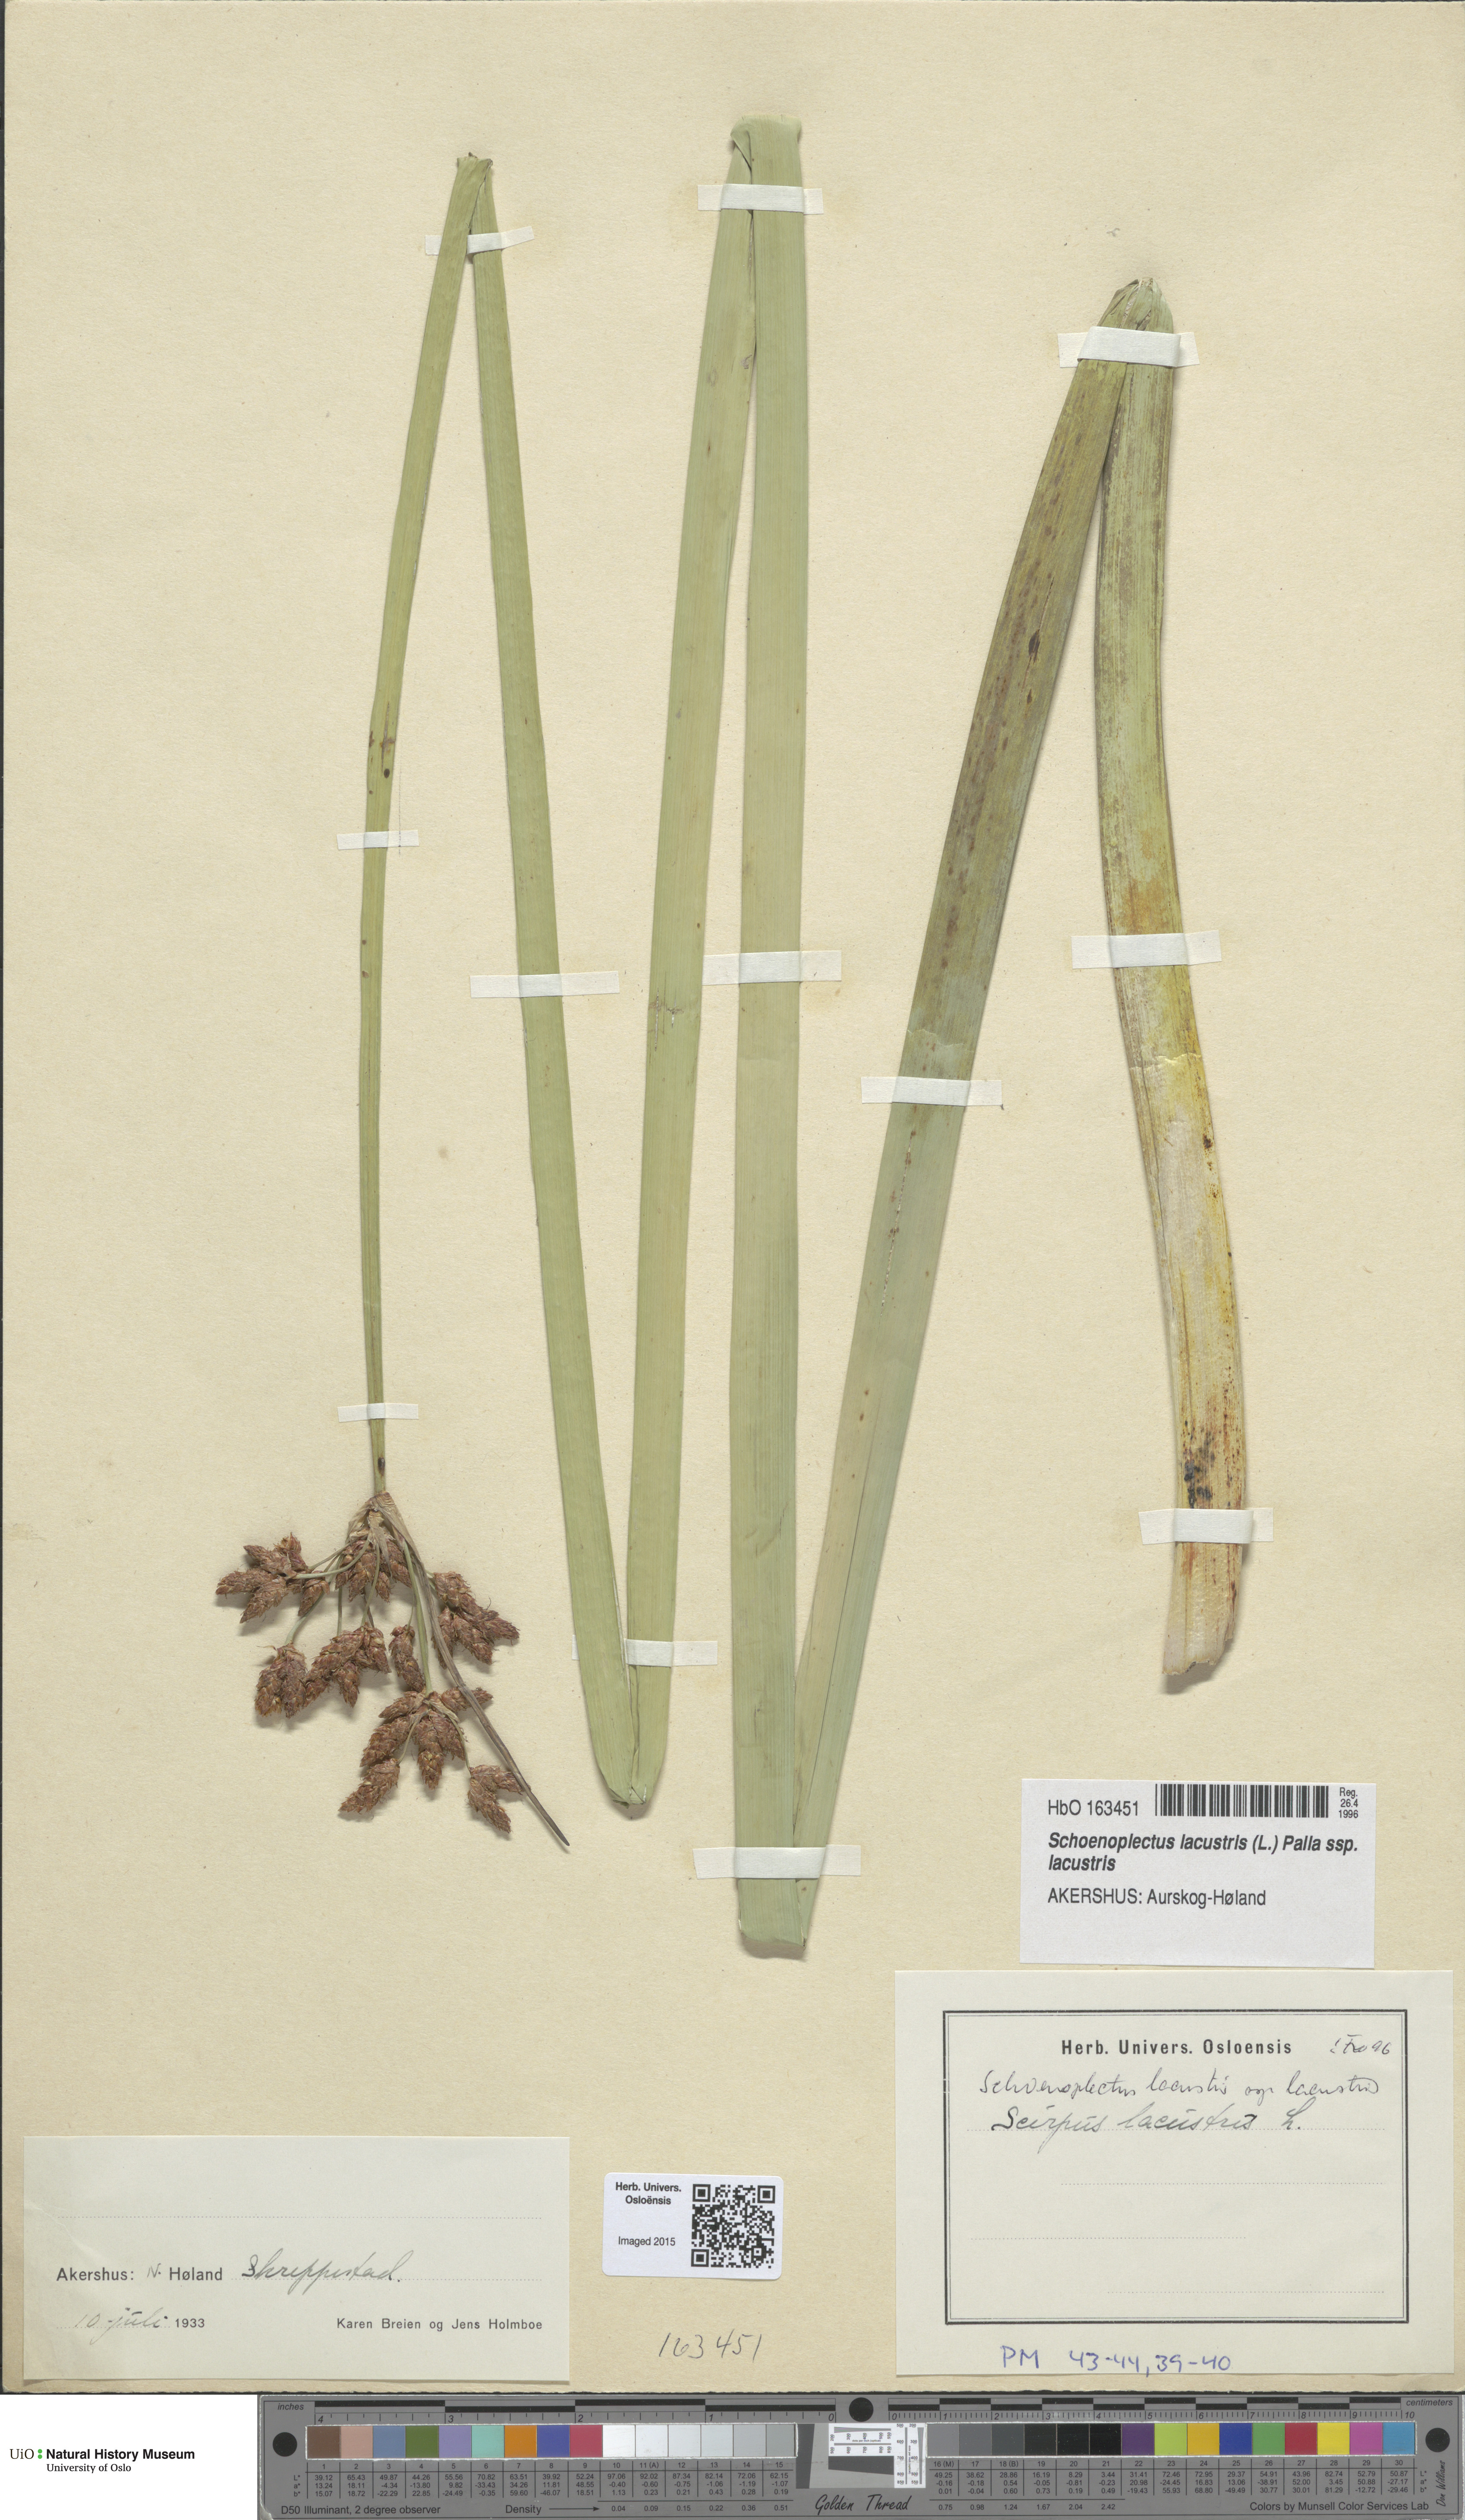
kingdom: Plantae
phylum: Tracheophyta
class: Liliopsida
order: Poales
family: Cyperaceae
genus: Schoenoplectus
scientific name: Schoenoplectus lacustris
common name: Common club-rush
